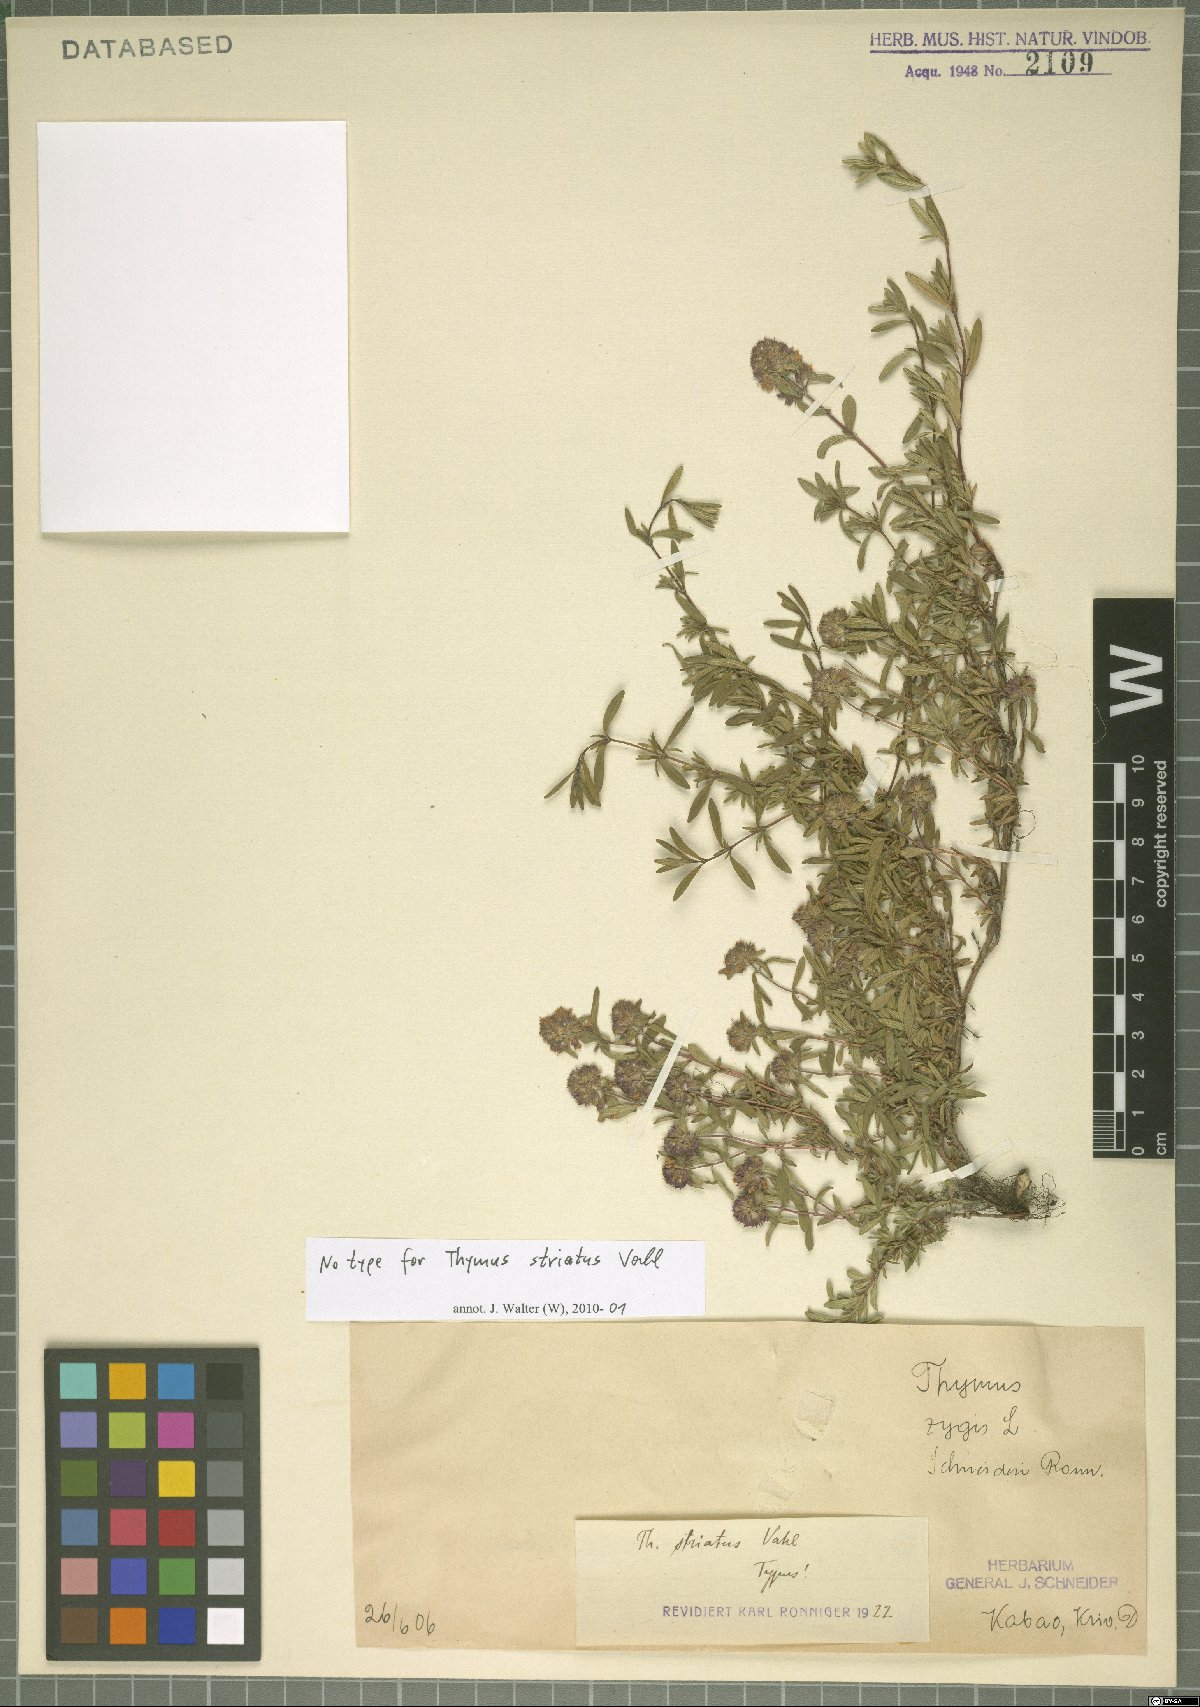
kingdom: Plantae
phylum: Tracheophyta
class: Magnoliopsida
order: Lamiales
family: Lamiaceae
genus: Thymus
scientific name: Thymus striatus
